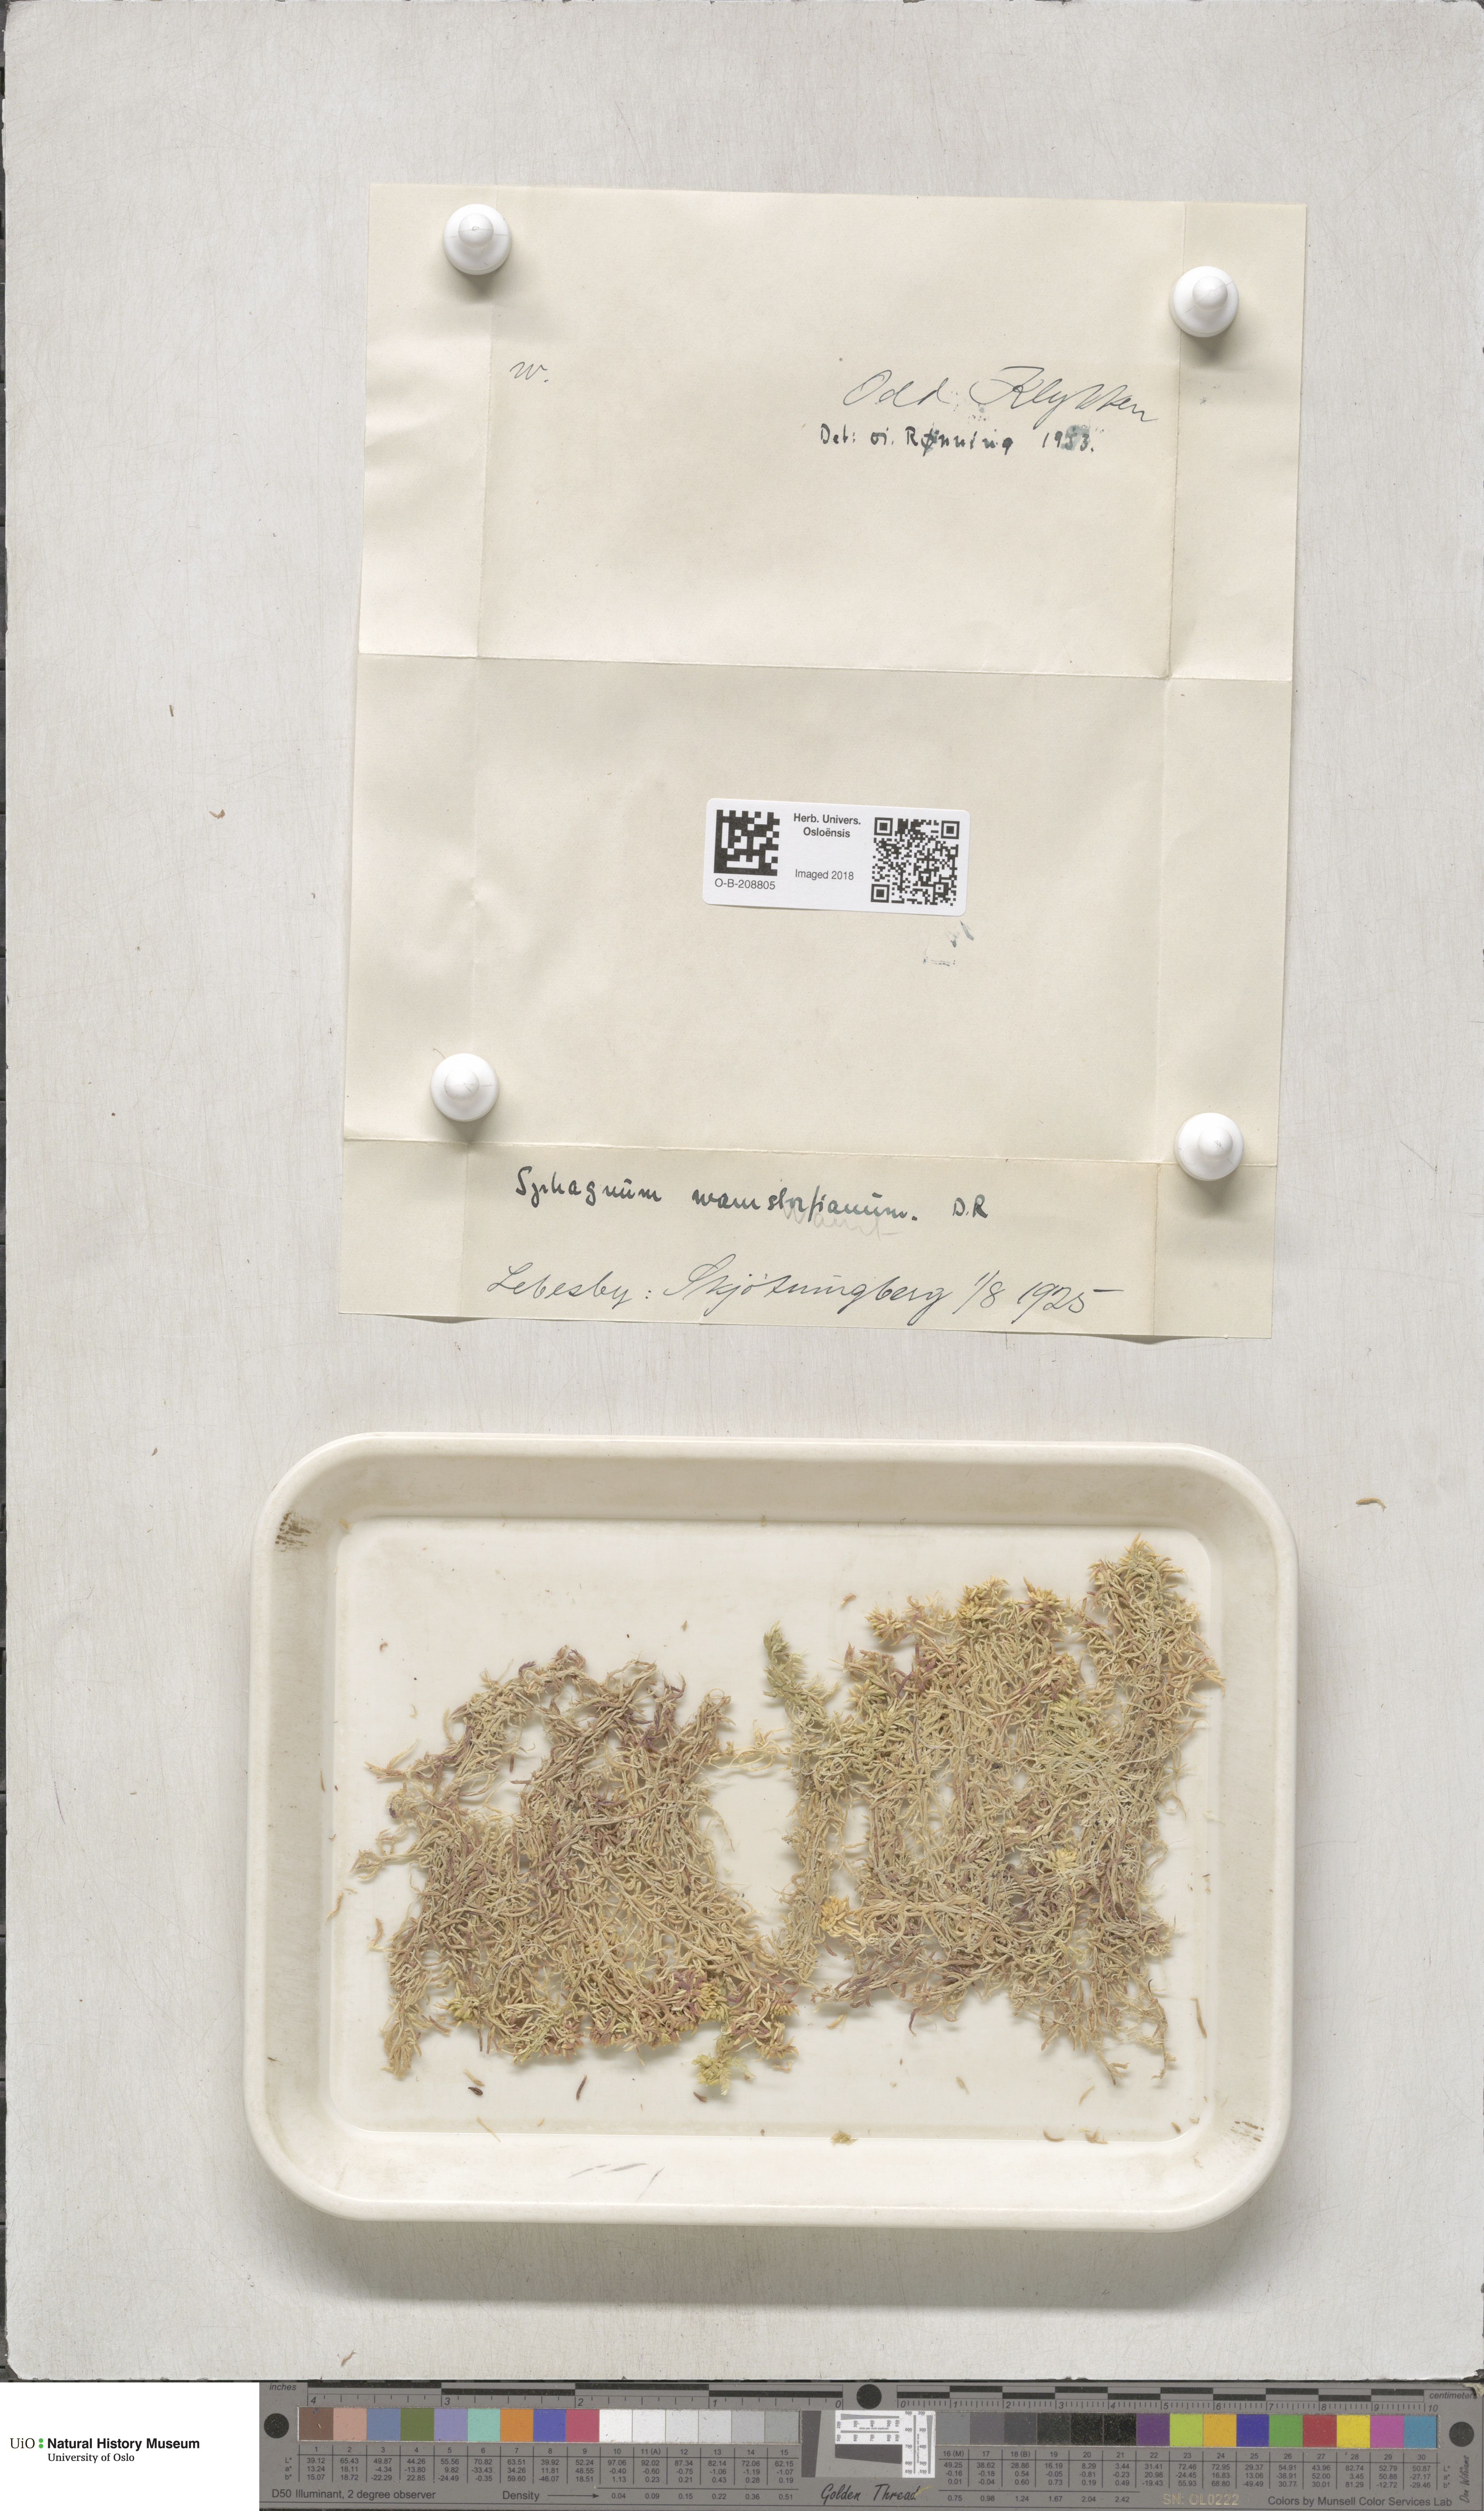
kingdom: Plantae
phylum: Bryophyta
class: Sphagnopsida
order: Sphagnales
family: Sphagnaceae
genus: Sphagnum
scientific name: Sphagnum warnstorfii
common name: Warnstorf's peat moss
